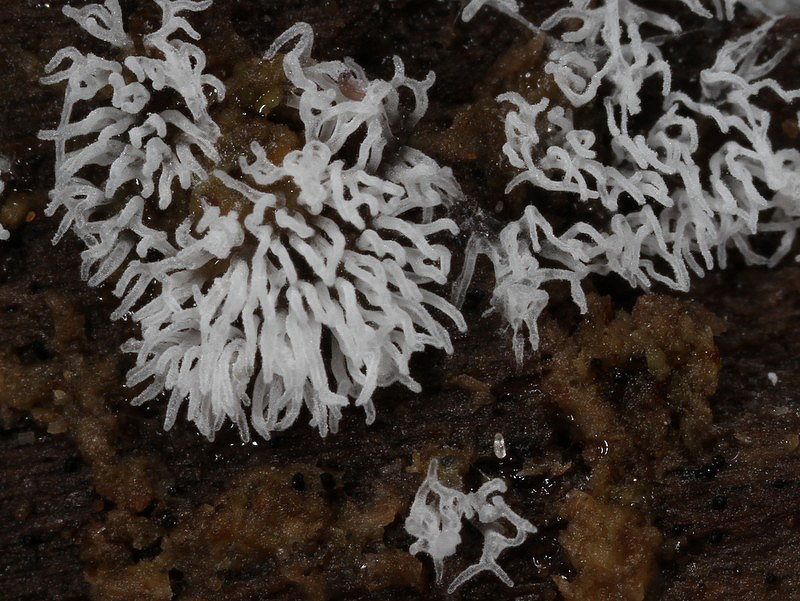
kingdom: Protozoa
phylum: Mycetozoa
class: Protosteliomycetes
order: Ceratiomyxales
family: Ceratiomyxaceae
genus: Ceratiomyxa
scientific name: Ceratiomyxa fruticulosa
